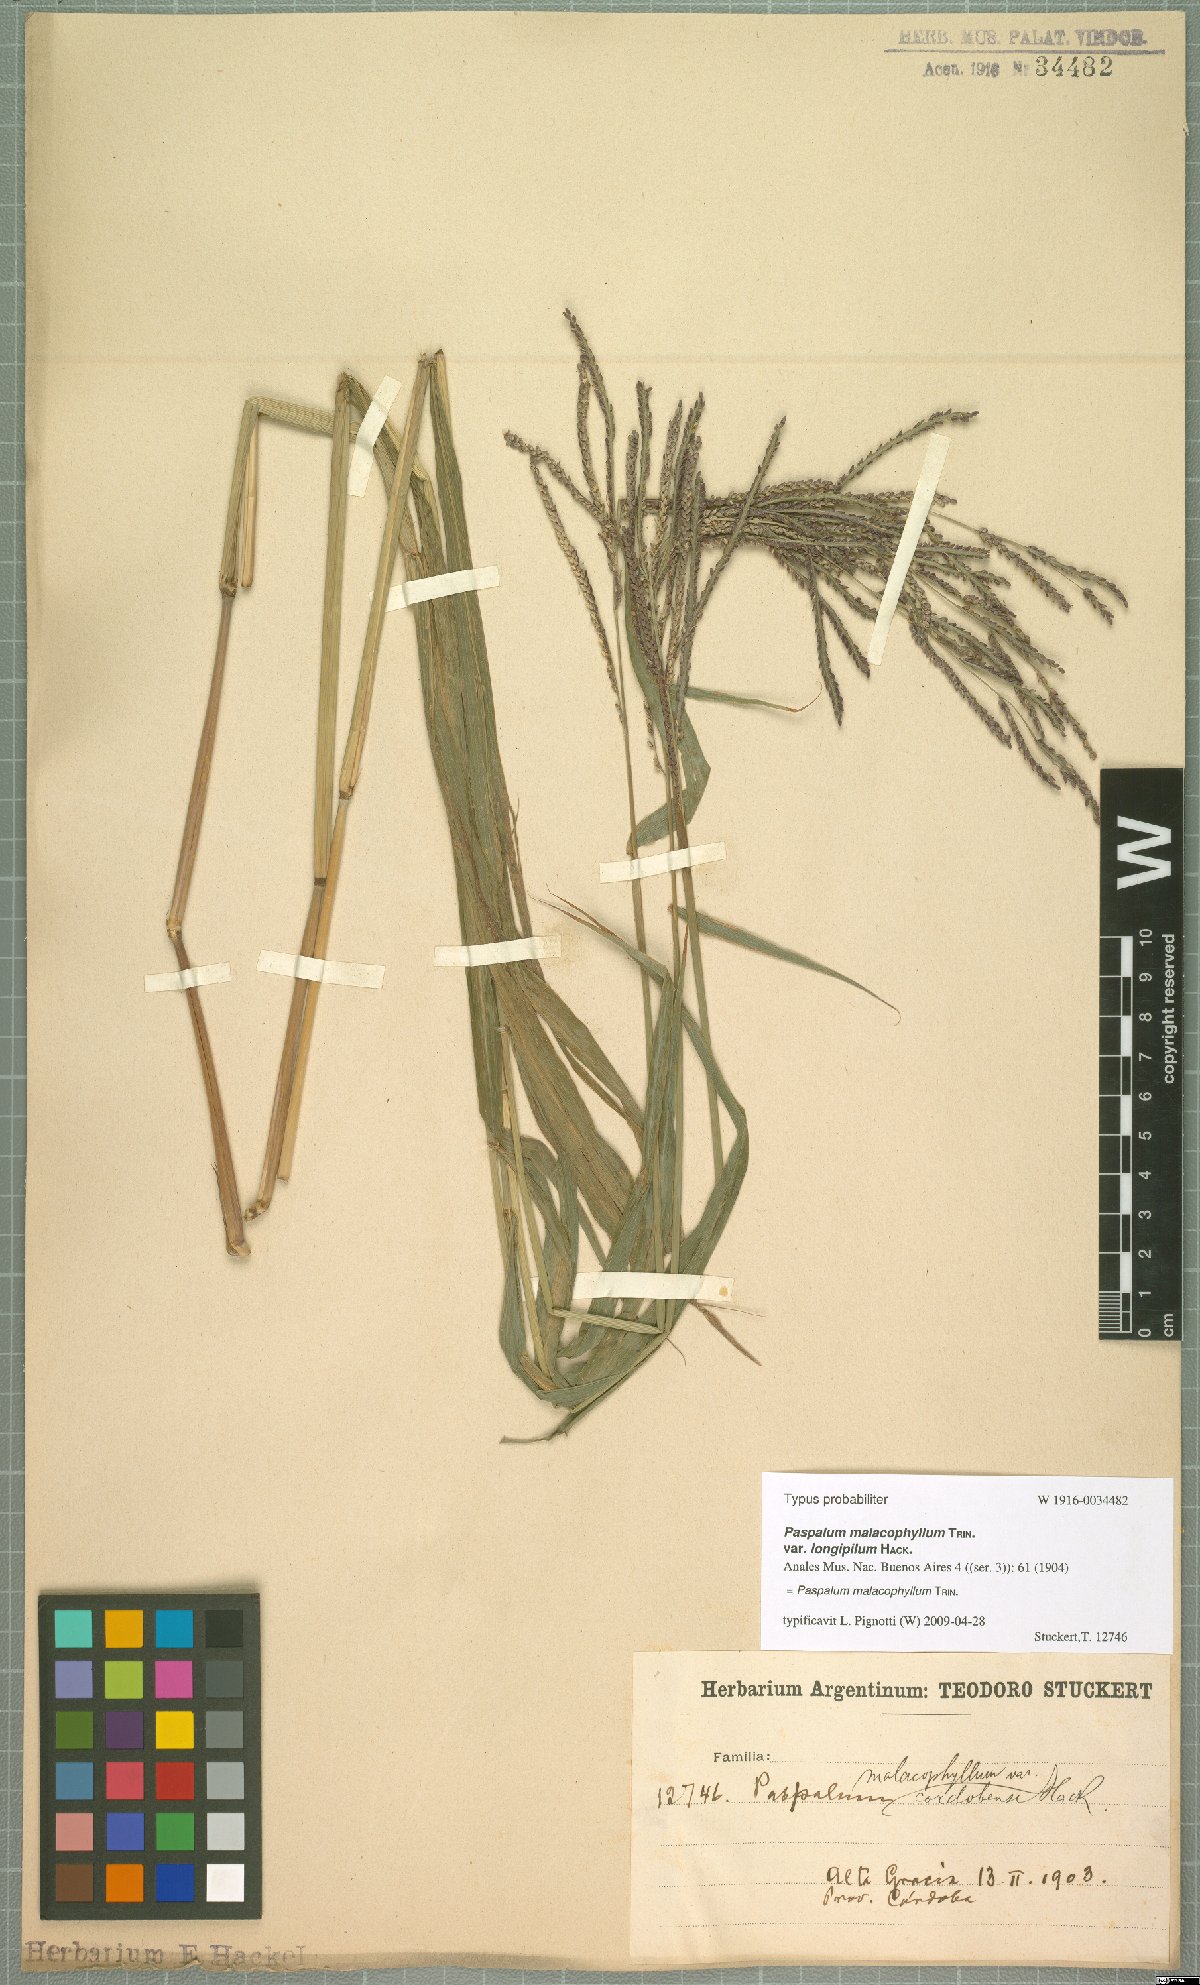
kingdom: Plantae
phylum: Tracheophyta
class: Liliopsida
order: Poales
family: Poaceae
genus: Paspalum
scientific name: Paspalum malacophyllum
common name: Ribbed paspalum
